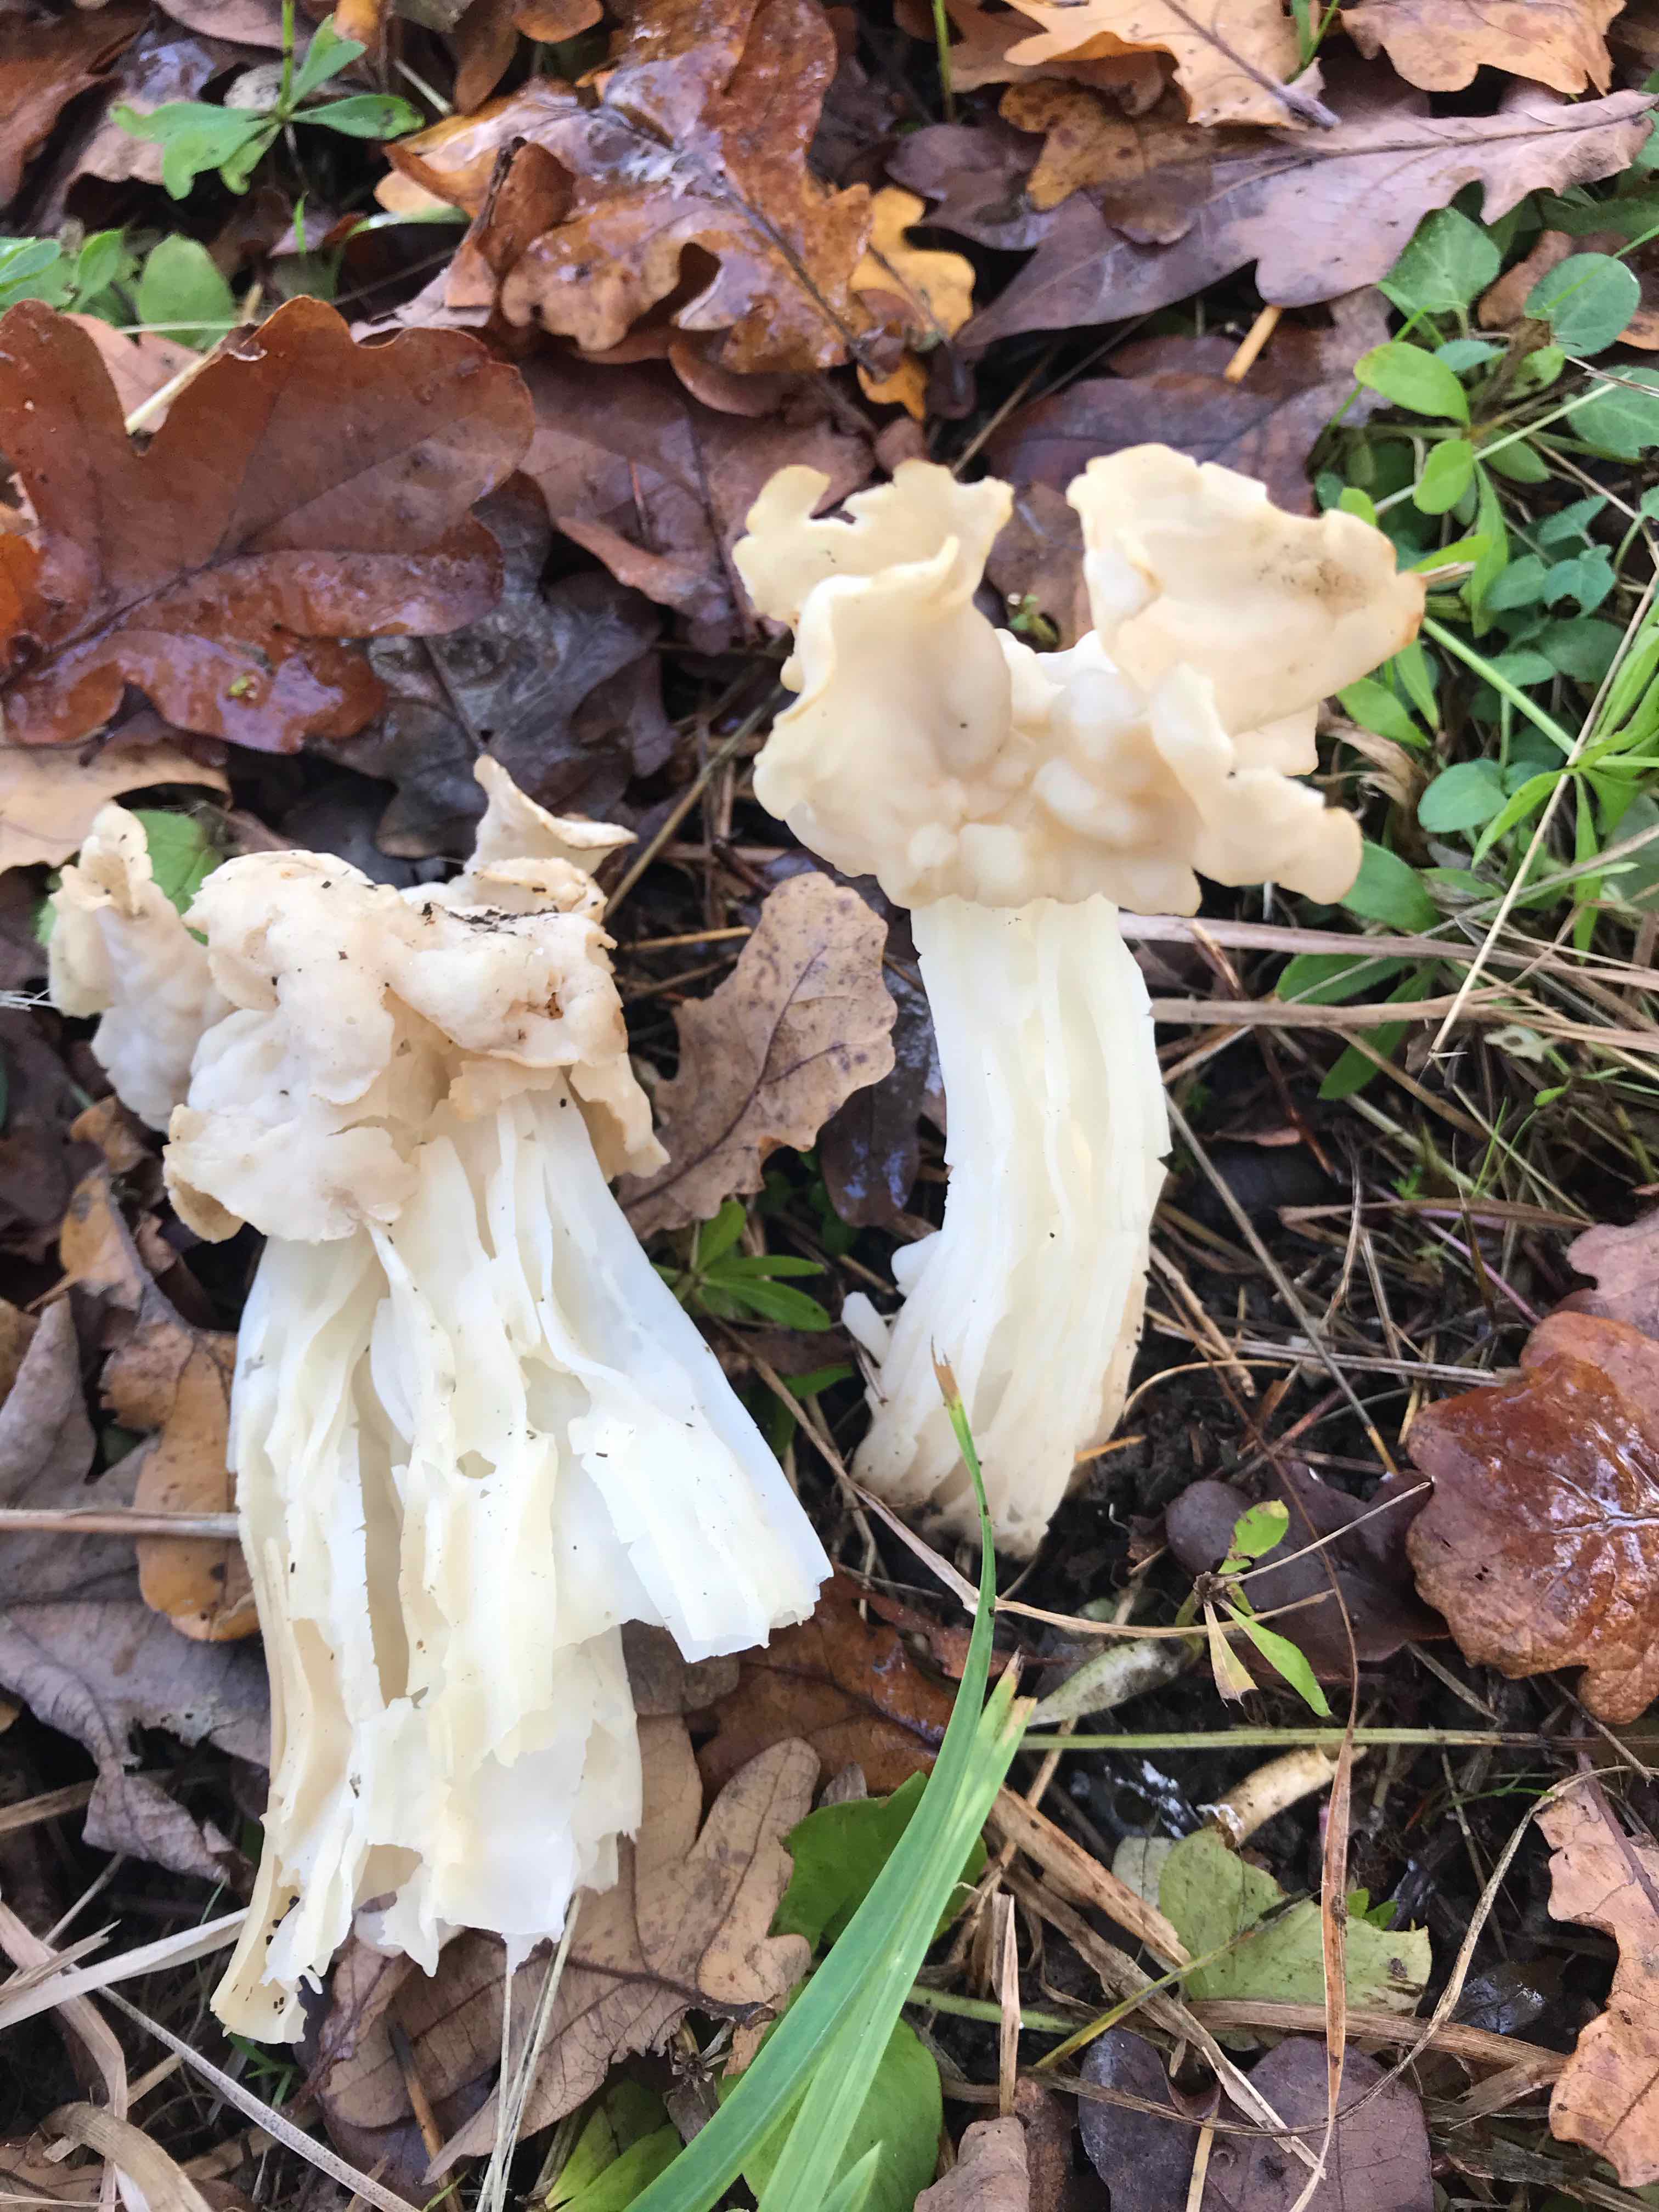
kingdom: Fungi
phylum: Ascomycota
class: Pezizomycetes
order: Pezizales
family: Helvellaceae
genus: Helvella
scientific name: Helvella crispa
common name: kruset foldhat
